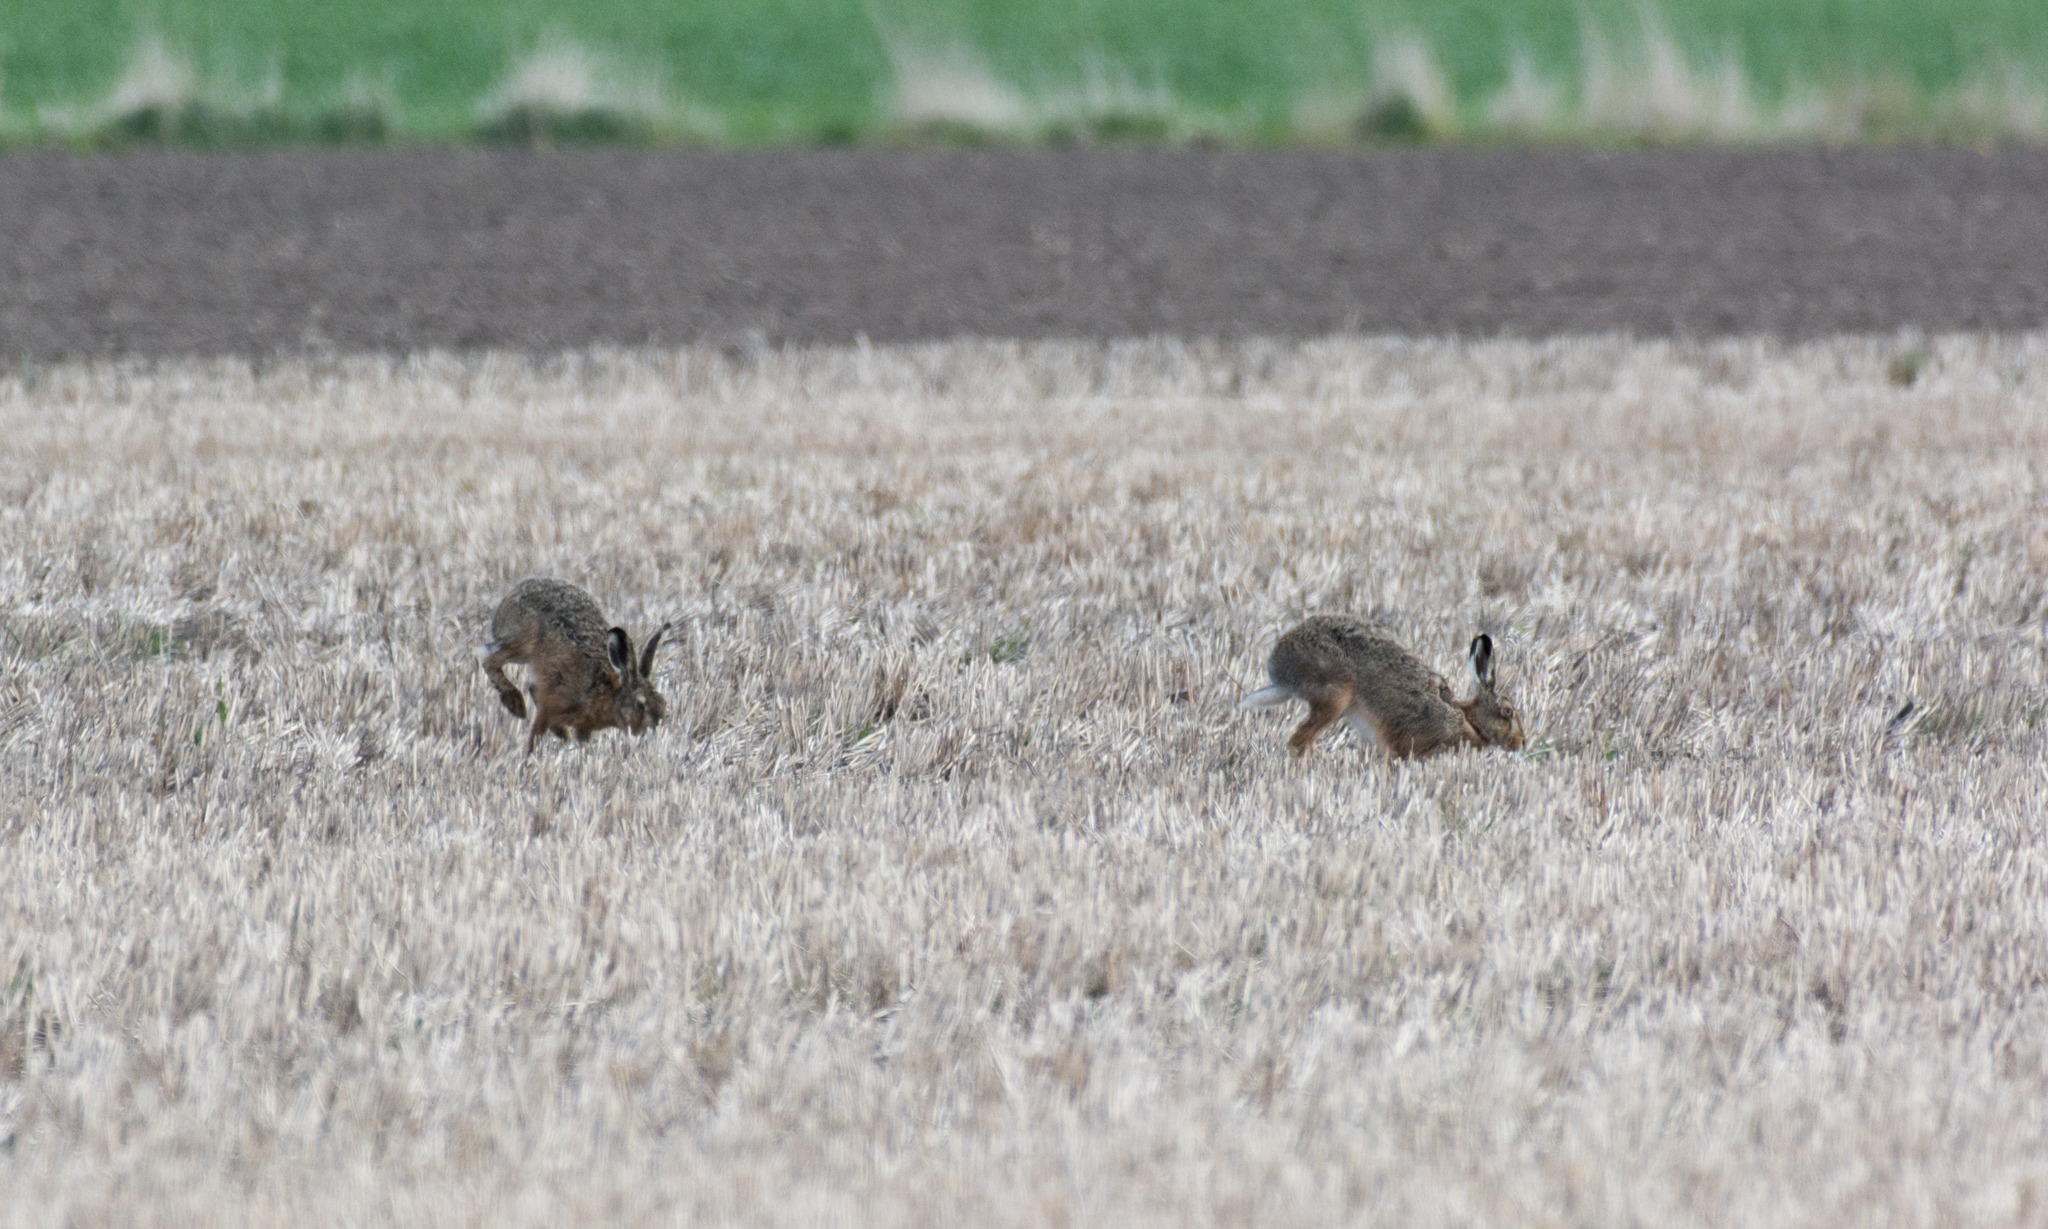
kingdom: Animalia
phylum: Chordata
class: Mammalia
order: Lagomorpha
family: Leporidae
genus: Lepus
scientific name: Lepus europaeus
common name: Hare
